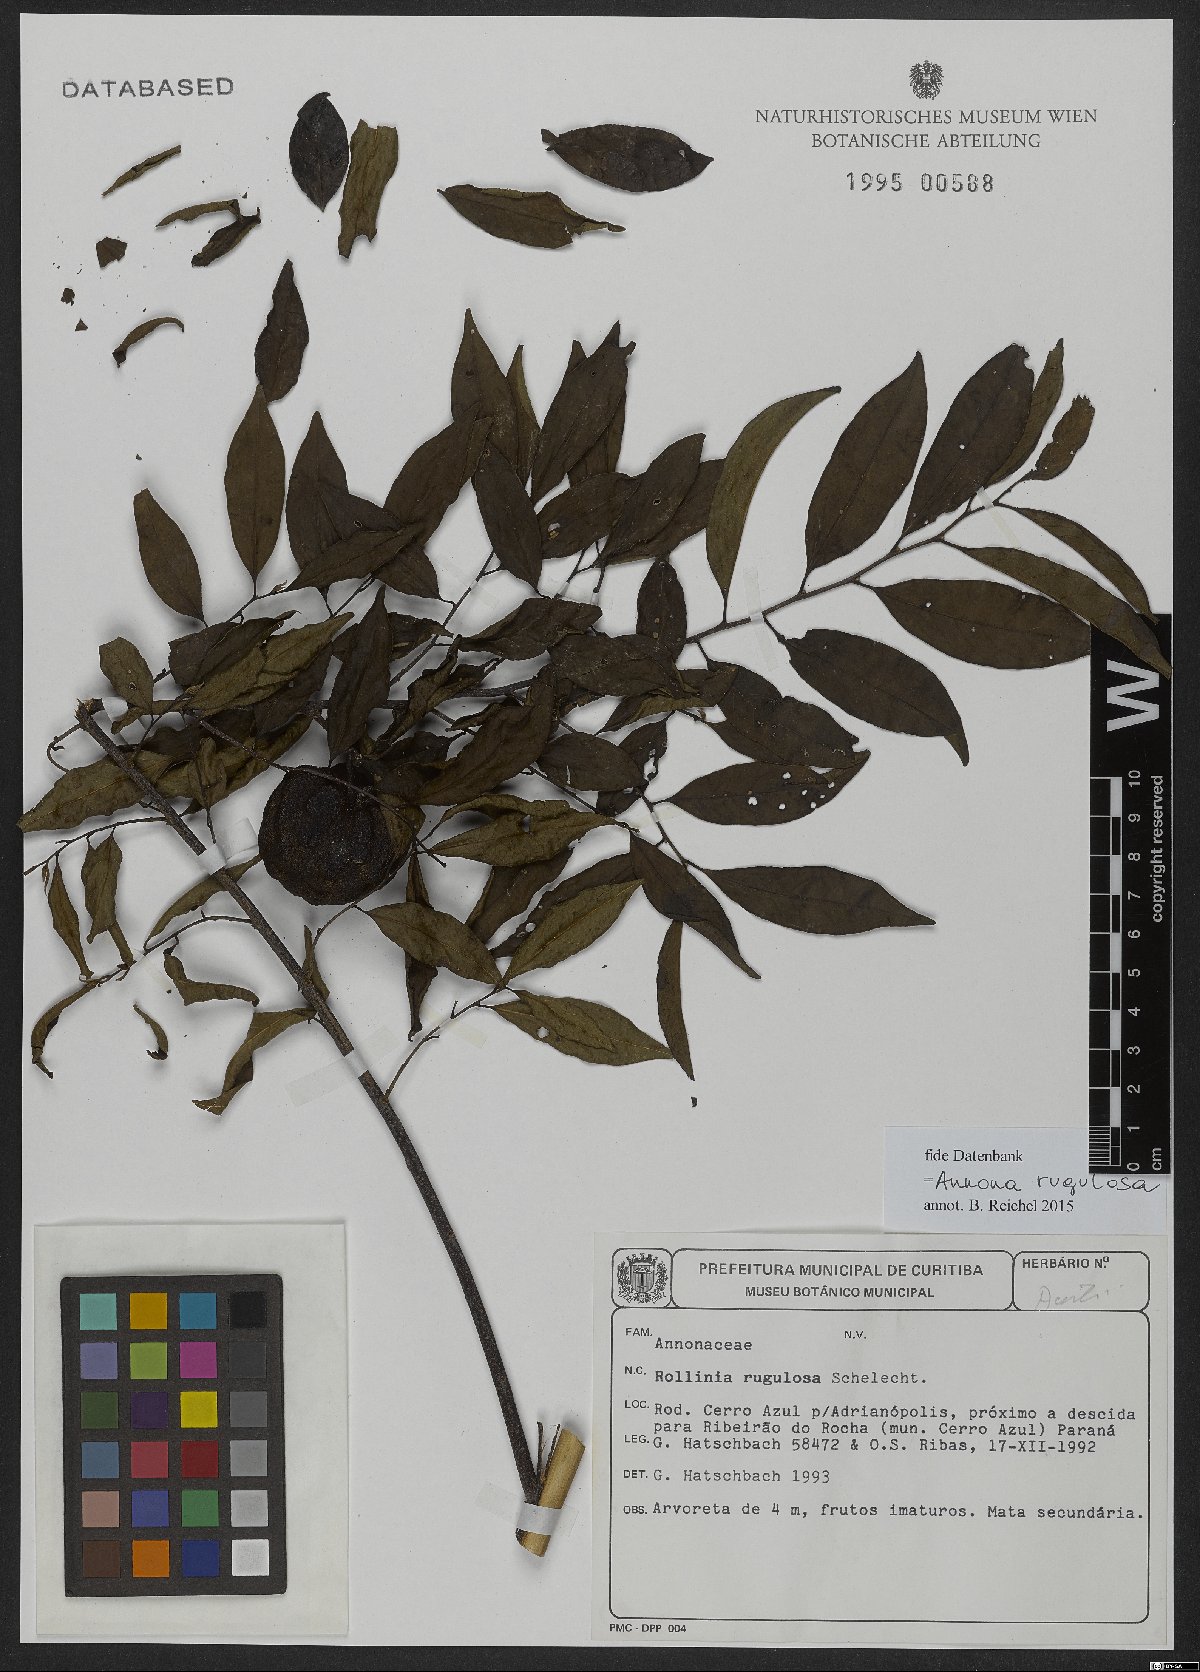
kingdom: Plantae
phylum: Tracheophyta
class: Magnoliopsida
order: Magnoliales
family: Annonaceae
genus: Annona
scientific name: Annona rugulosa
